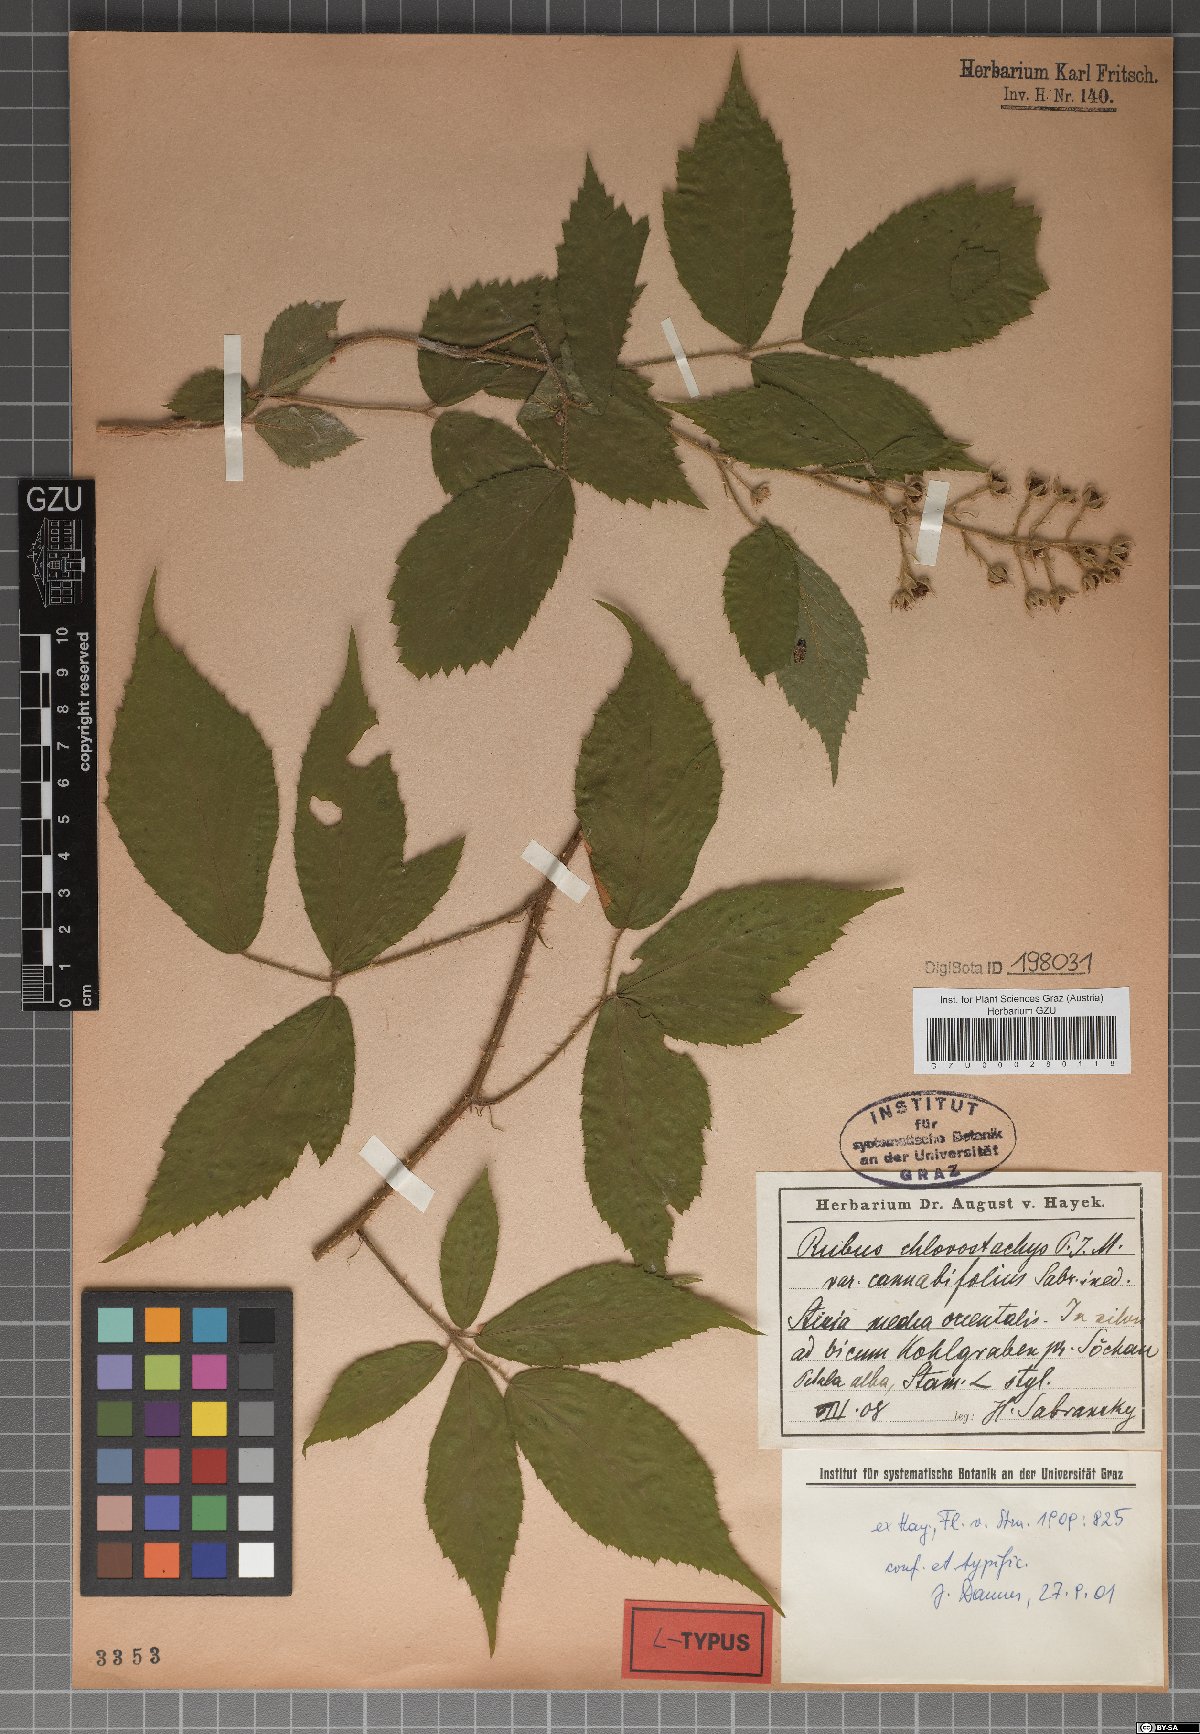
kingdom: Plantae
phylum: Tracheophyta
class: Magnoliopsida
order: Rosales
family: Rosaceae
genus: Rubus
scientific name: Rubus chlorostachys
